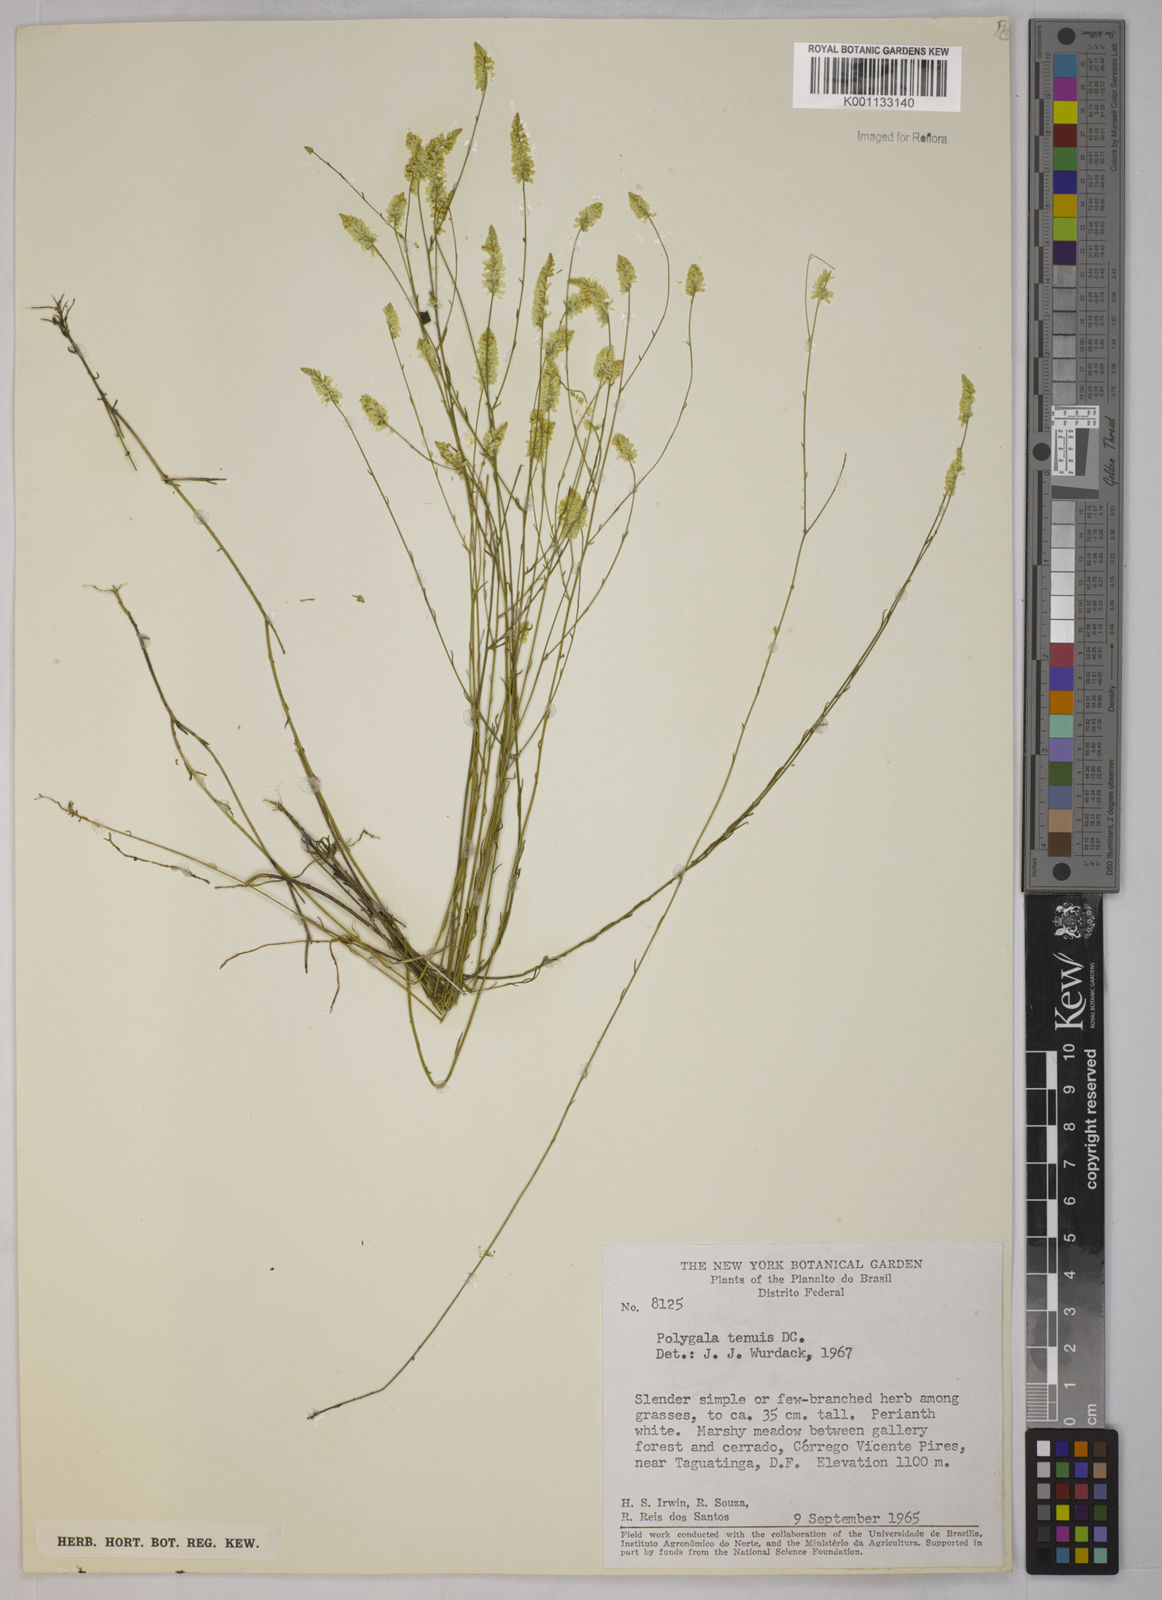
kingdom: Plantae
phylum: Tracheophyta
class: Magnoliopsida
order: Fabales
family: Polygalaceae
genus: Polygala
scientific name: Polygala tenuis
